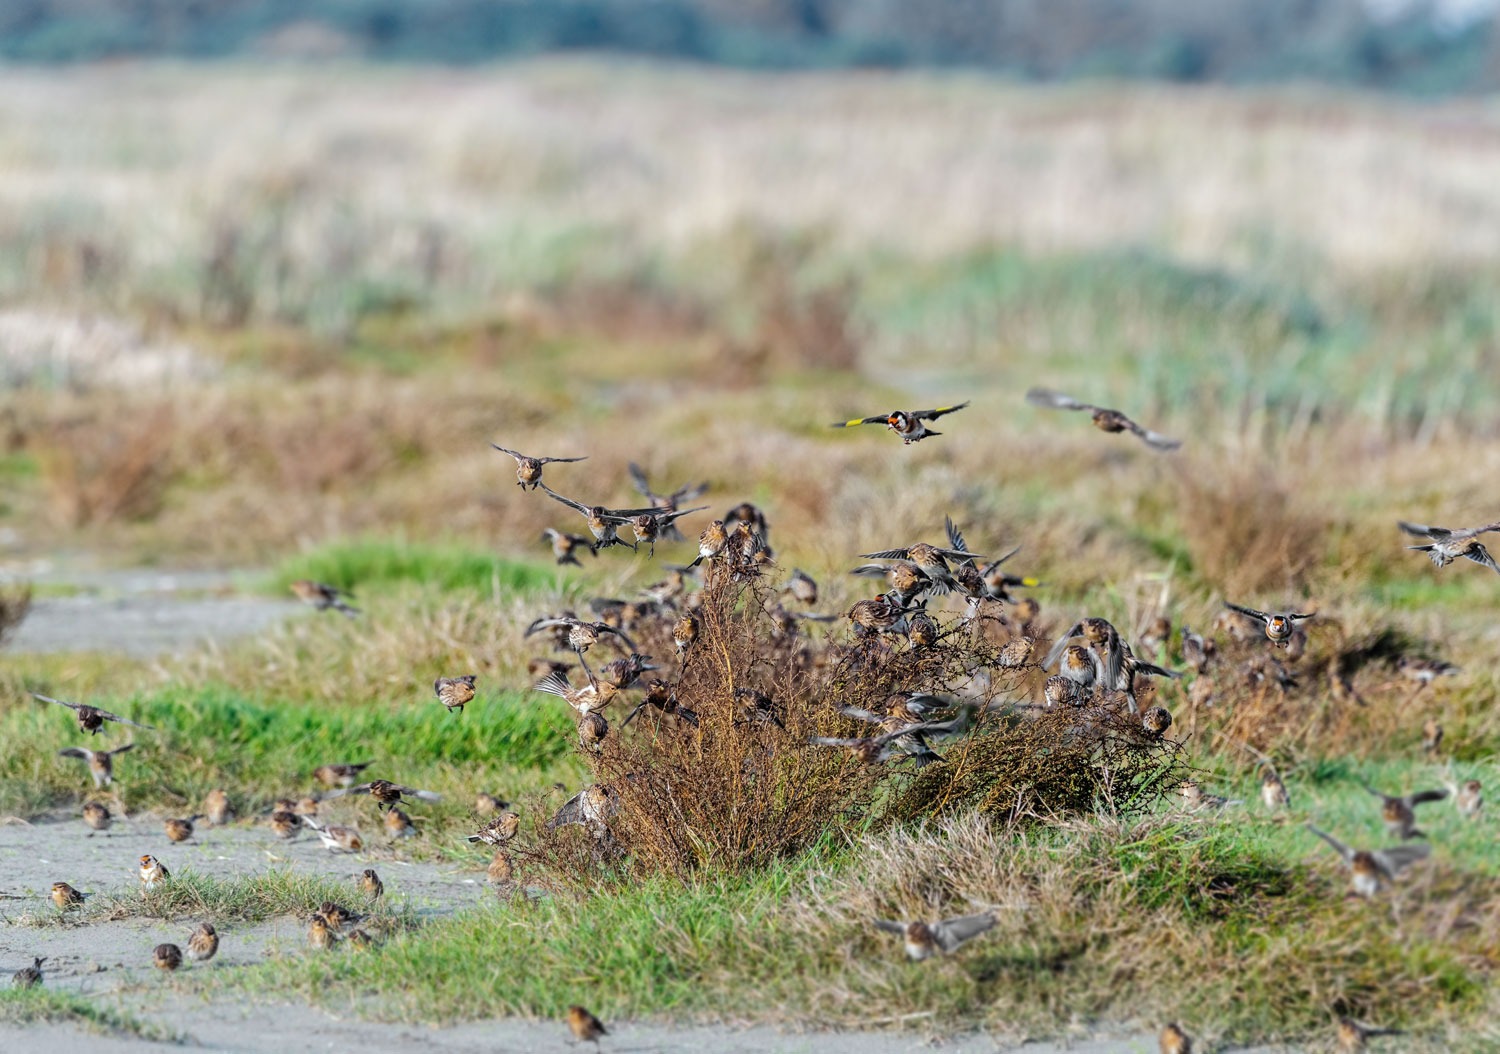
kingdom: Animalia
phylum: Chordata
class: Aves
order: Passeriformes
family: Fringillidae
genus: Linaria
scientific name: Linaria flavirostris
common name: Bjergirisk
